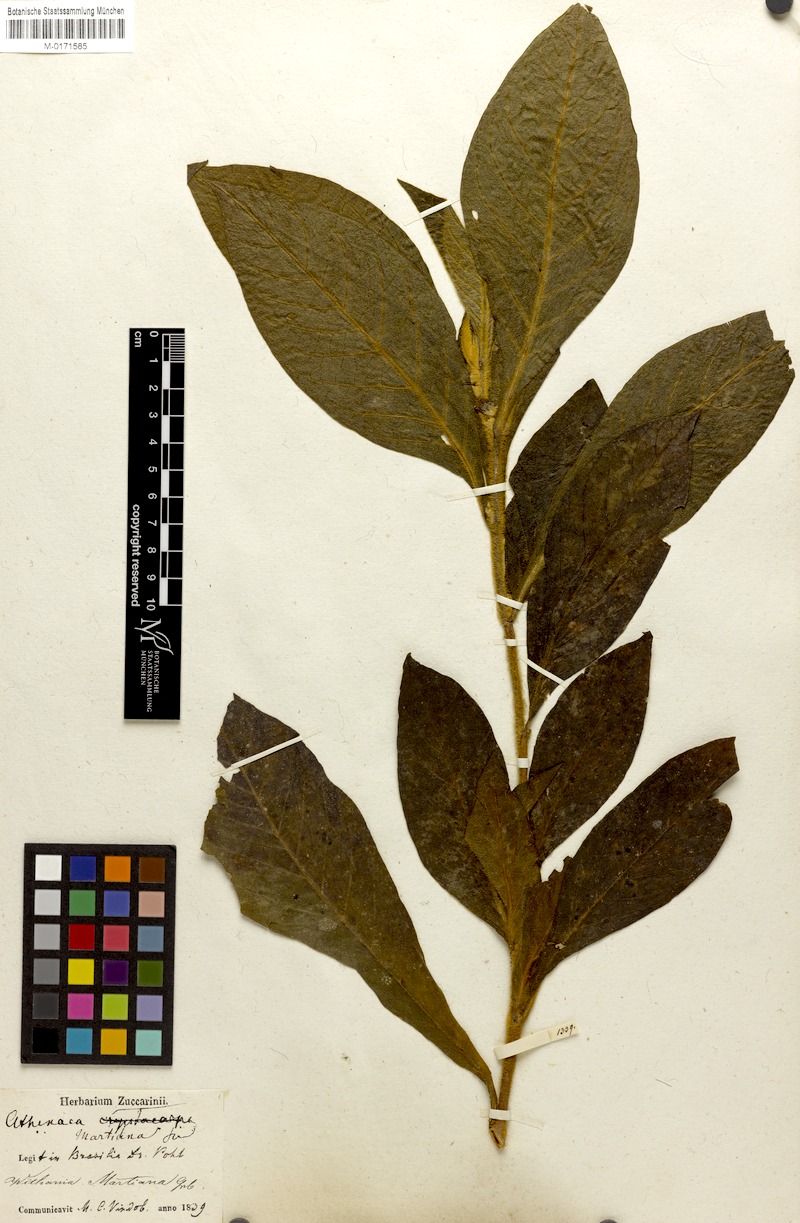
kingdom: Plantae
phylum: Tracheophyta
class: Magnoliopsida
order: Solanales
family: Solanaceae
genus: Athenaea
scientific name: Athenaea martiana
